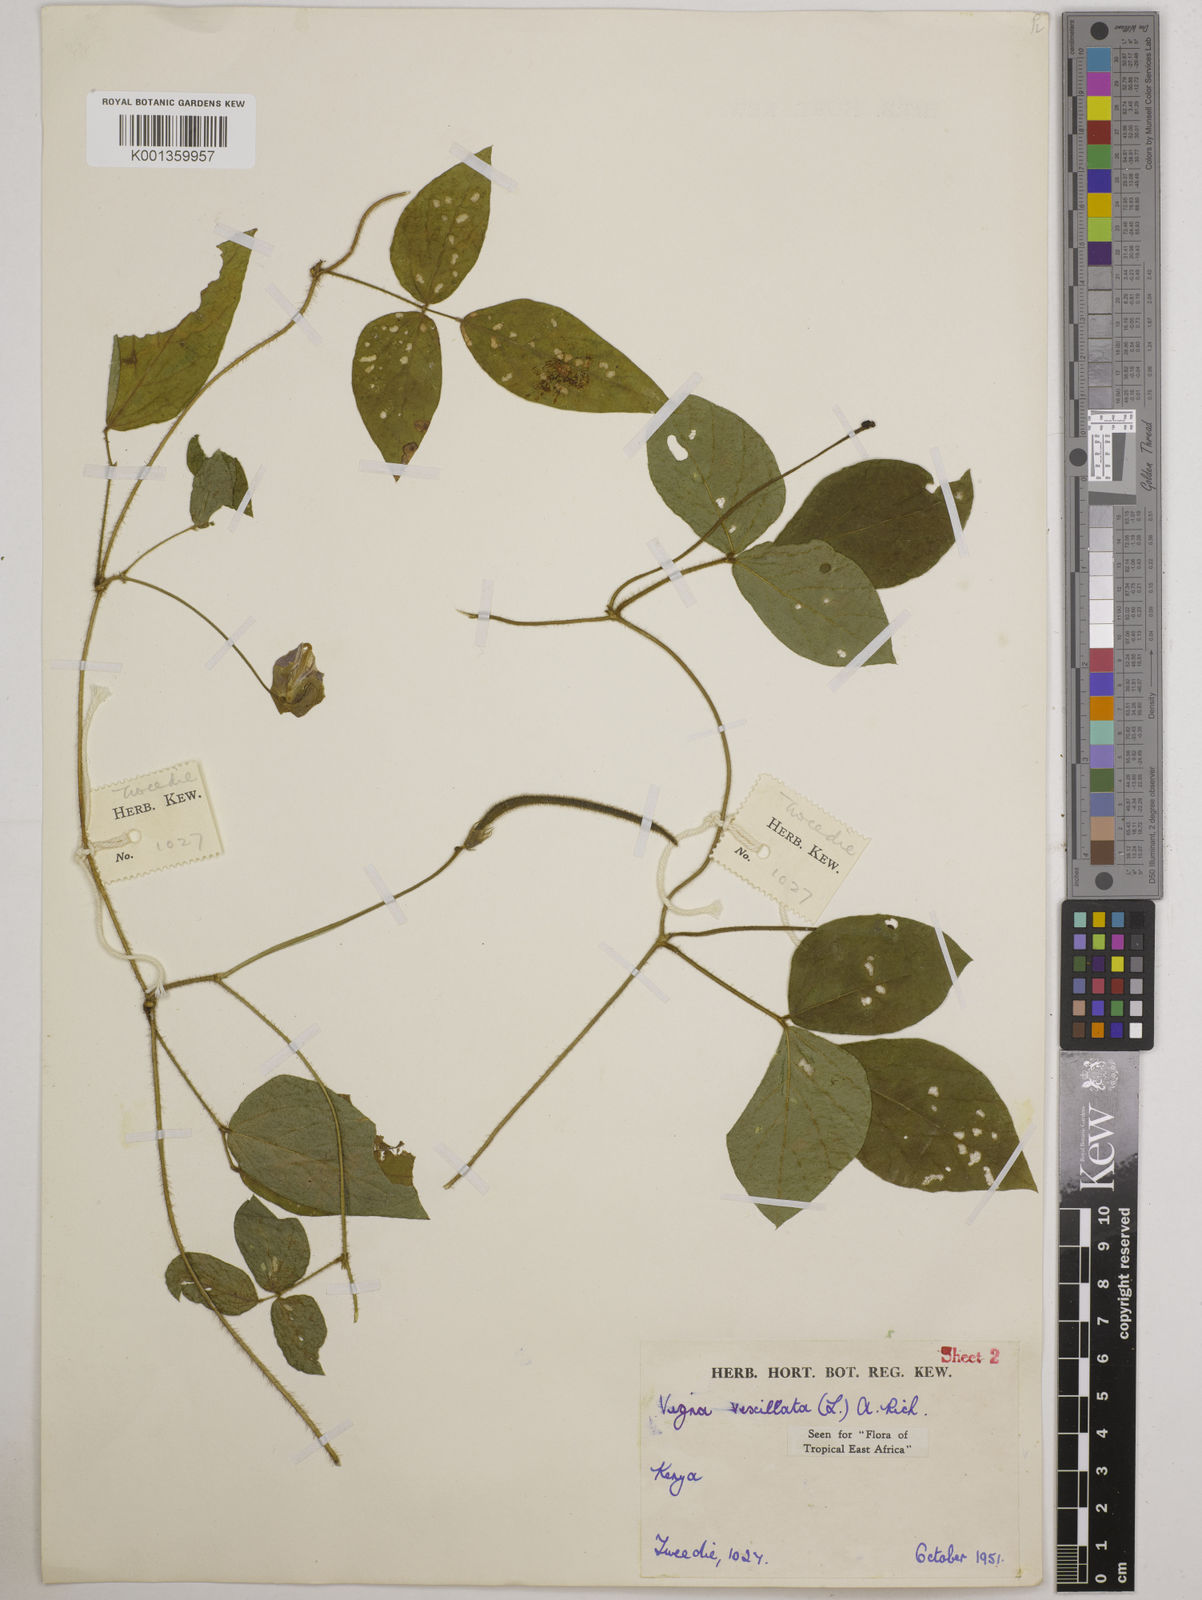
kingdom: Plantae
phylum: Tracheophyta
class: Magnoliopsida
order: Fabales
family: Fabaceae
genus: Vigna
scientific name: Vigna vexillata
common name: Zombi pea
